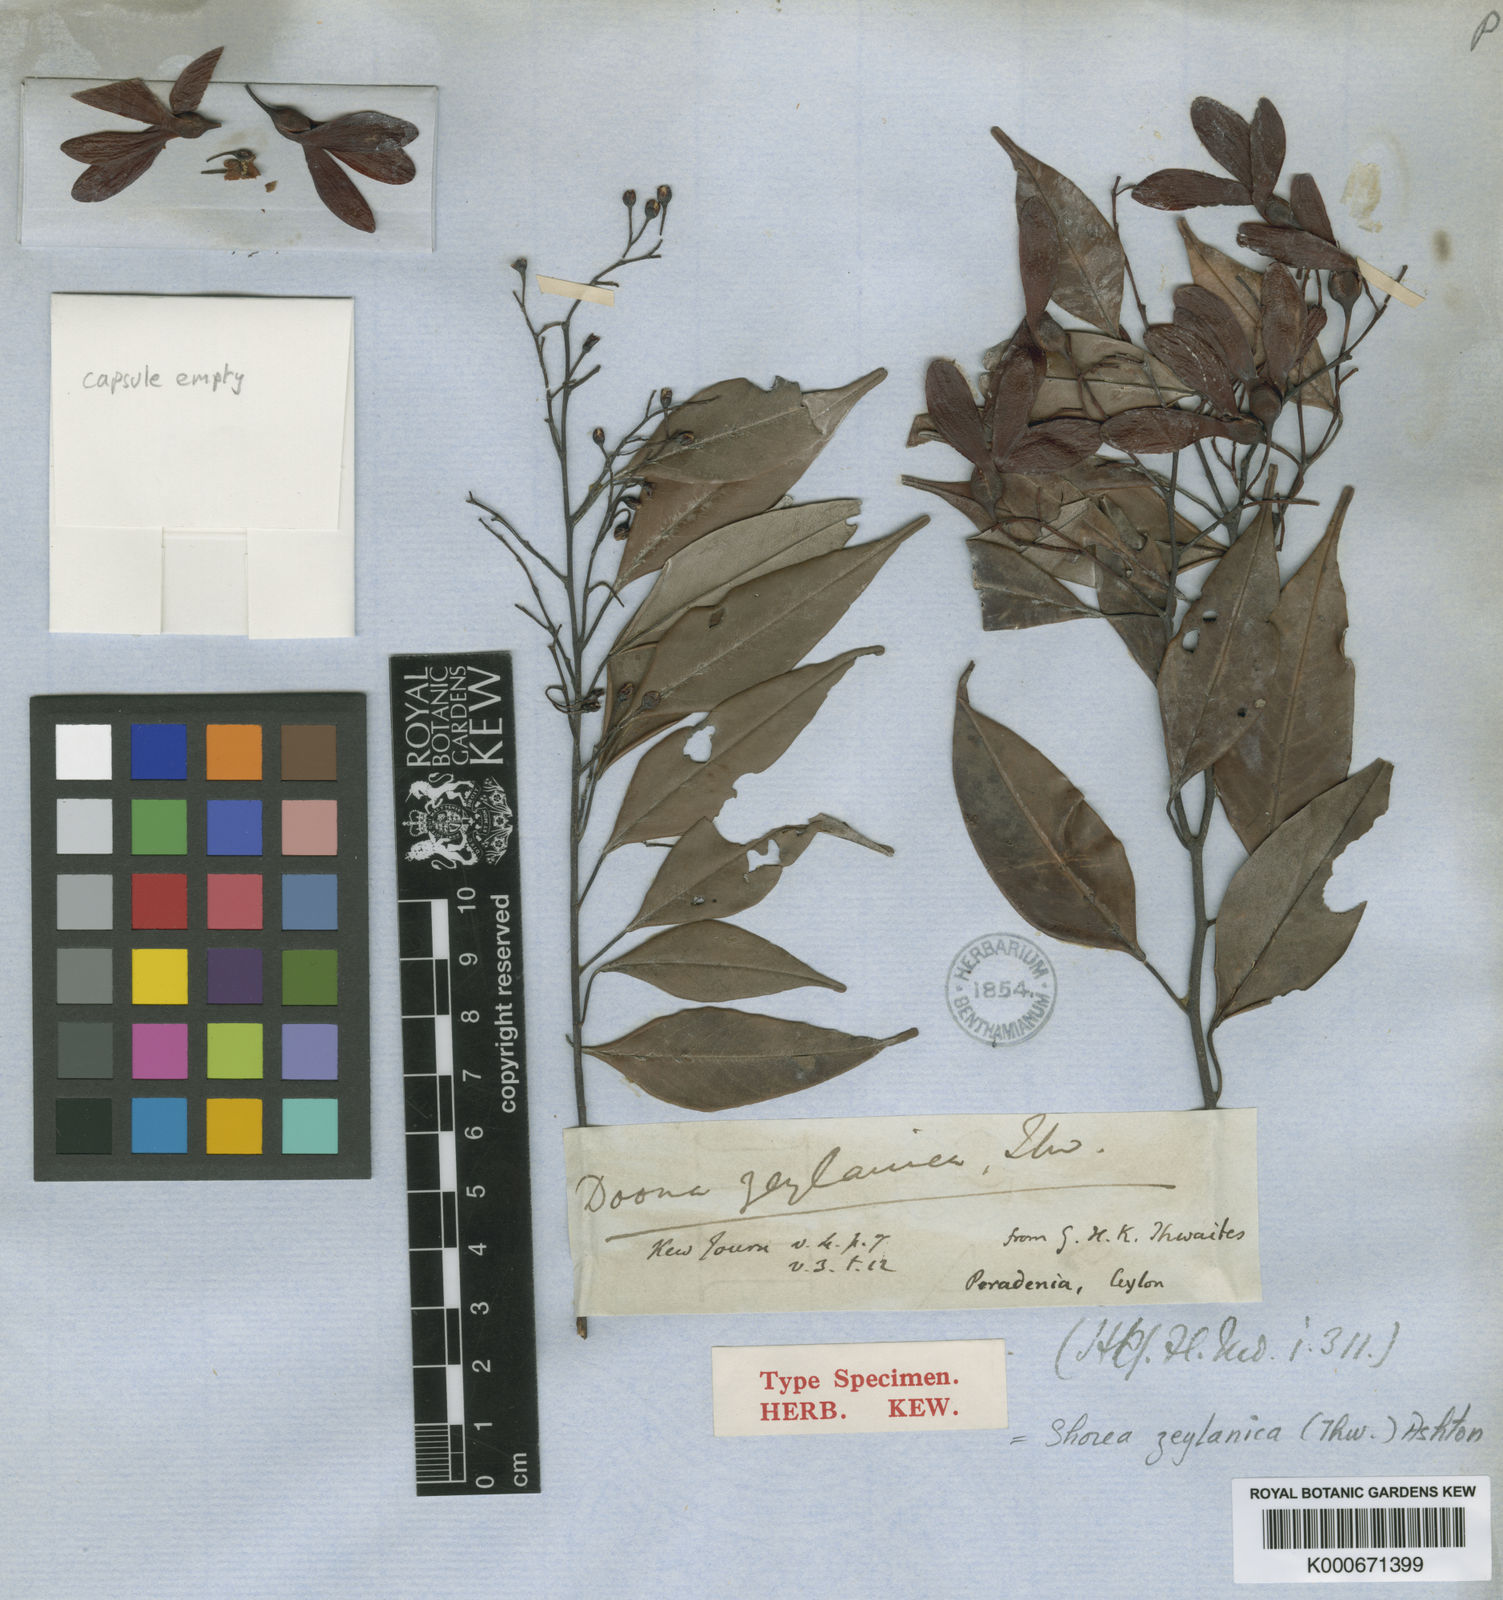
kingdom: Plantae
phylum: Tracheophyta
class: Magnoliopsida
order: Malvales
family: Dipterocarpaceae
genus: Doona
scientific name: Doona zeylanica
